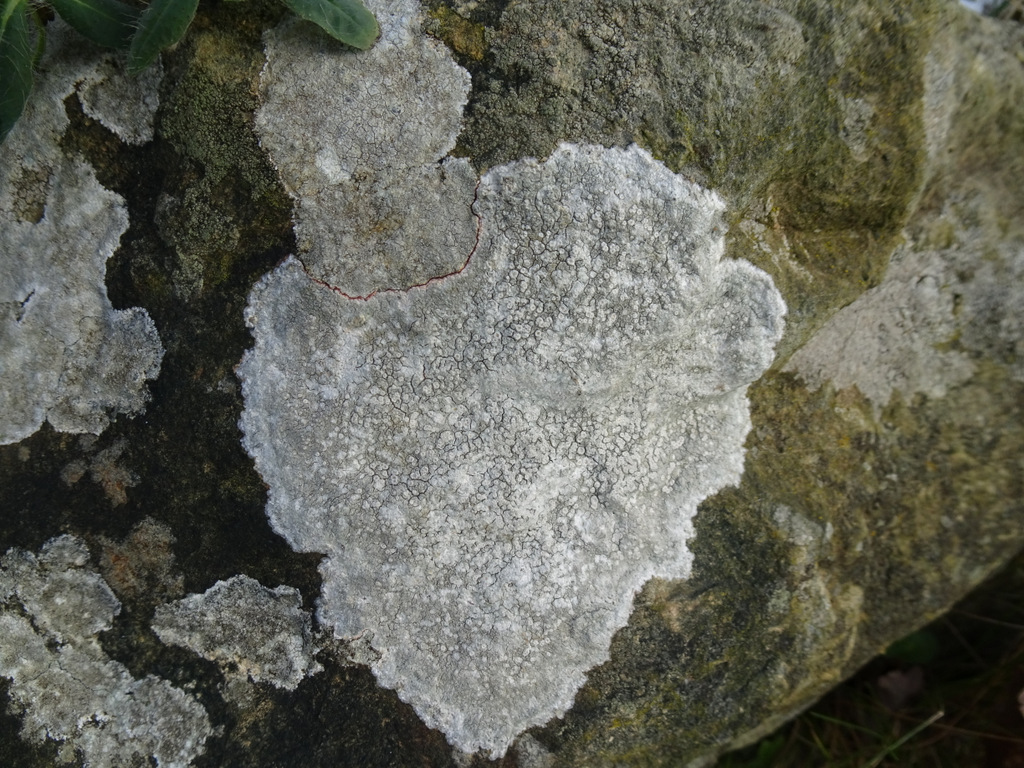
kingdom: Fungi
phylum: Ascomycota
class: Lecanoromycetes
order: Lecanorales
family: Lecanoraceae
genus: Glaucomaria
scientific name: Glaucomaria rupicola
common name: stengærde-kantskivelav
